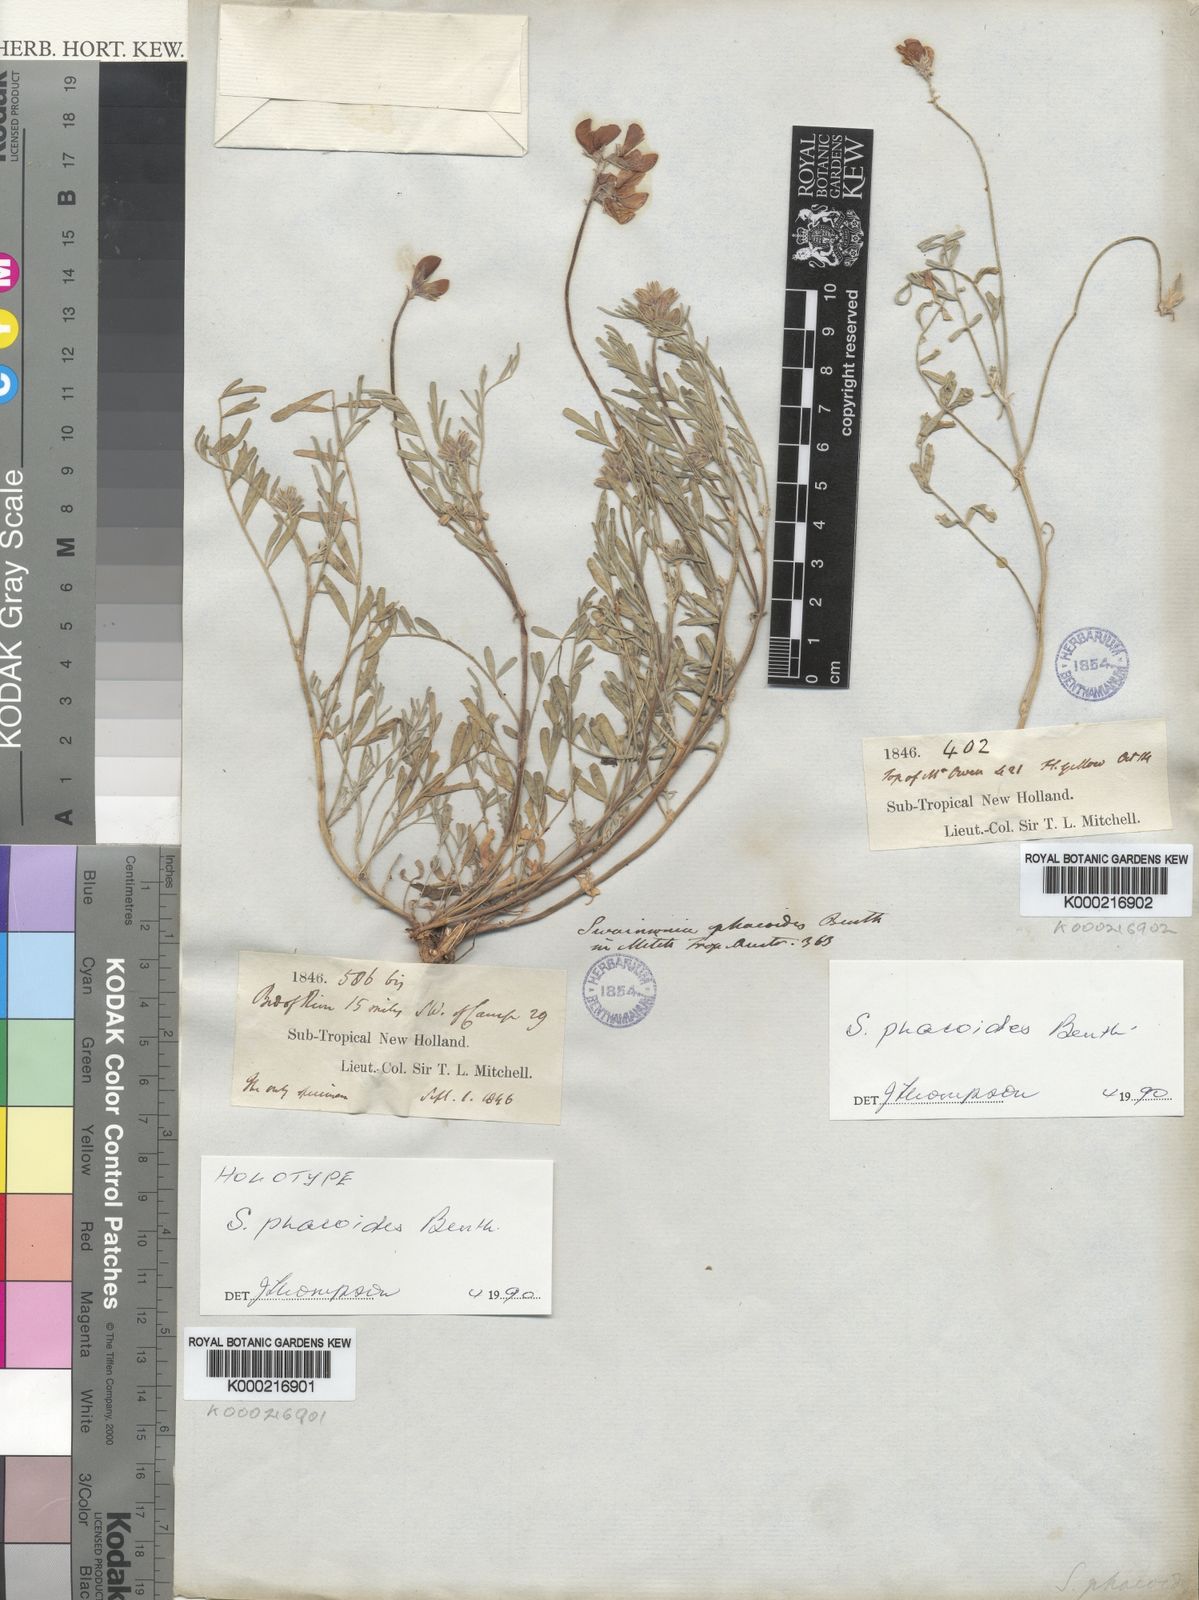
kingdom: Plantae
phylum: Tracheophyta
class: Magnoliopsida
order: Fabales
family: Fabaceae
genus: Swainsona
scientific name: Swainsona phacoides
